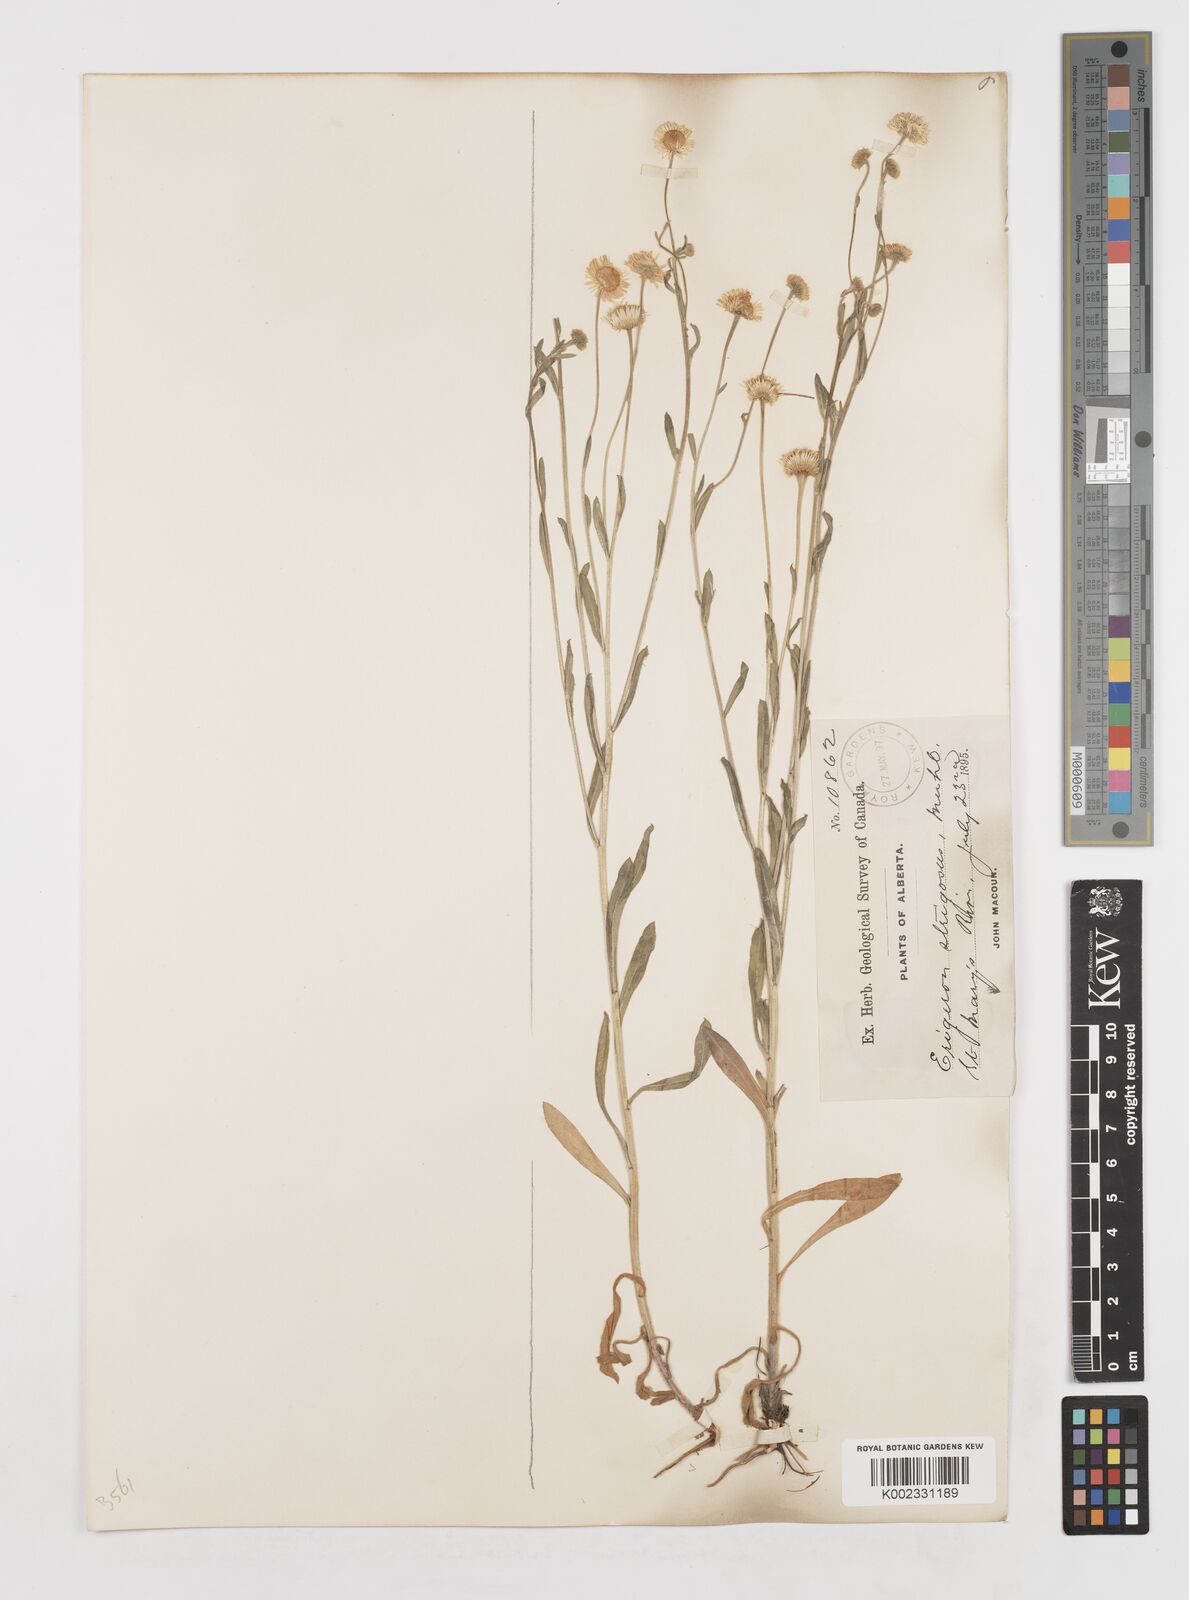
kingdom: Plantae
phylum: Tracheophyta
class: Magnoliopsida
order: Asterales
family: Asteraceae
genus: Erigeron
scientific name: Erigeron strigosus
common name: Common eastern fleabane
